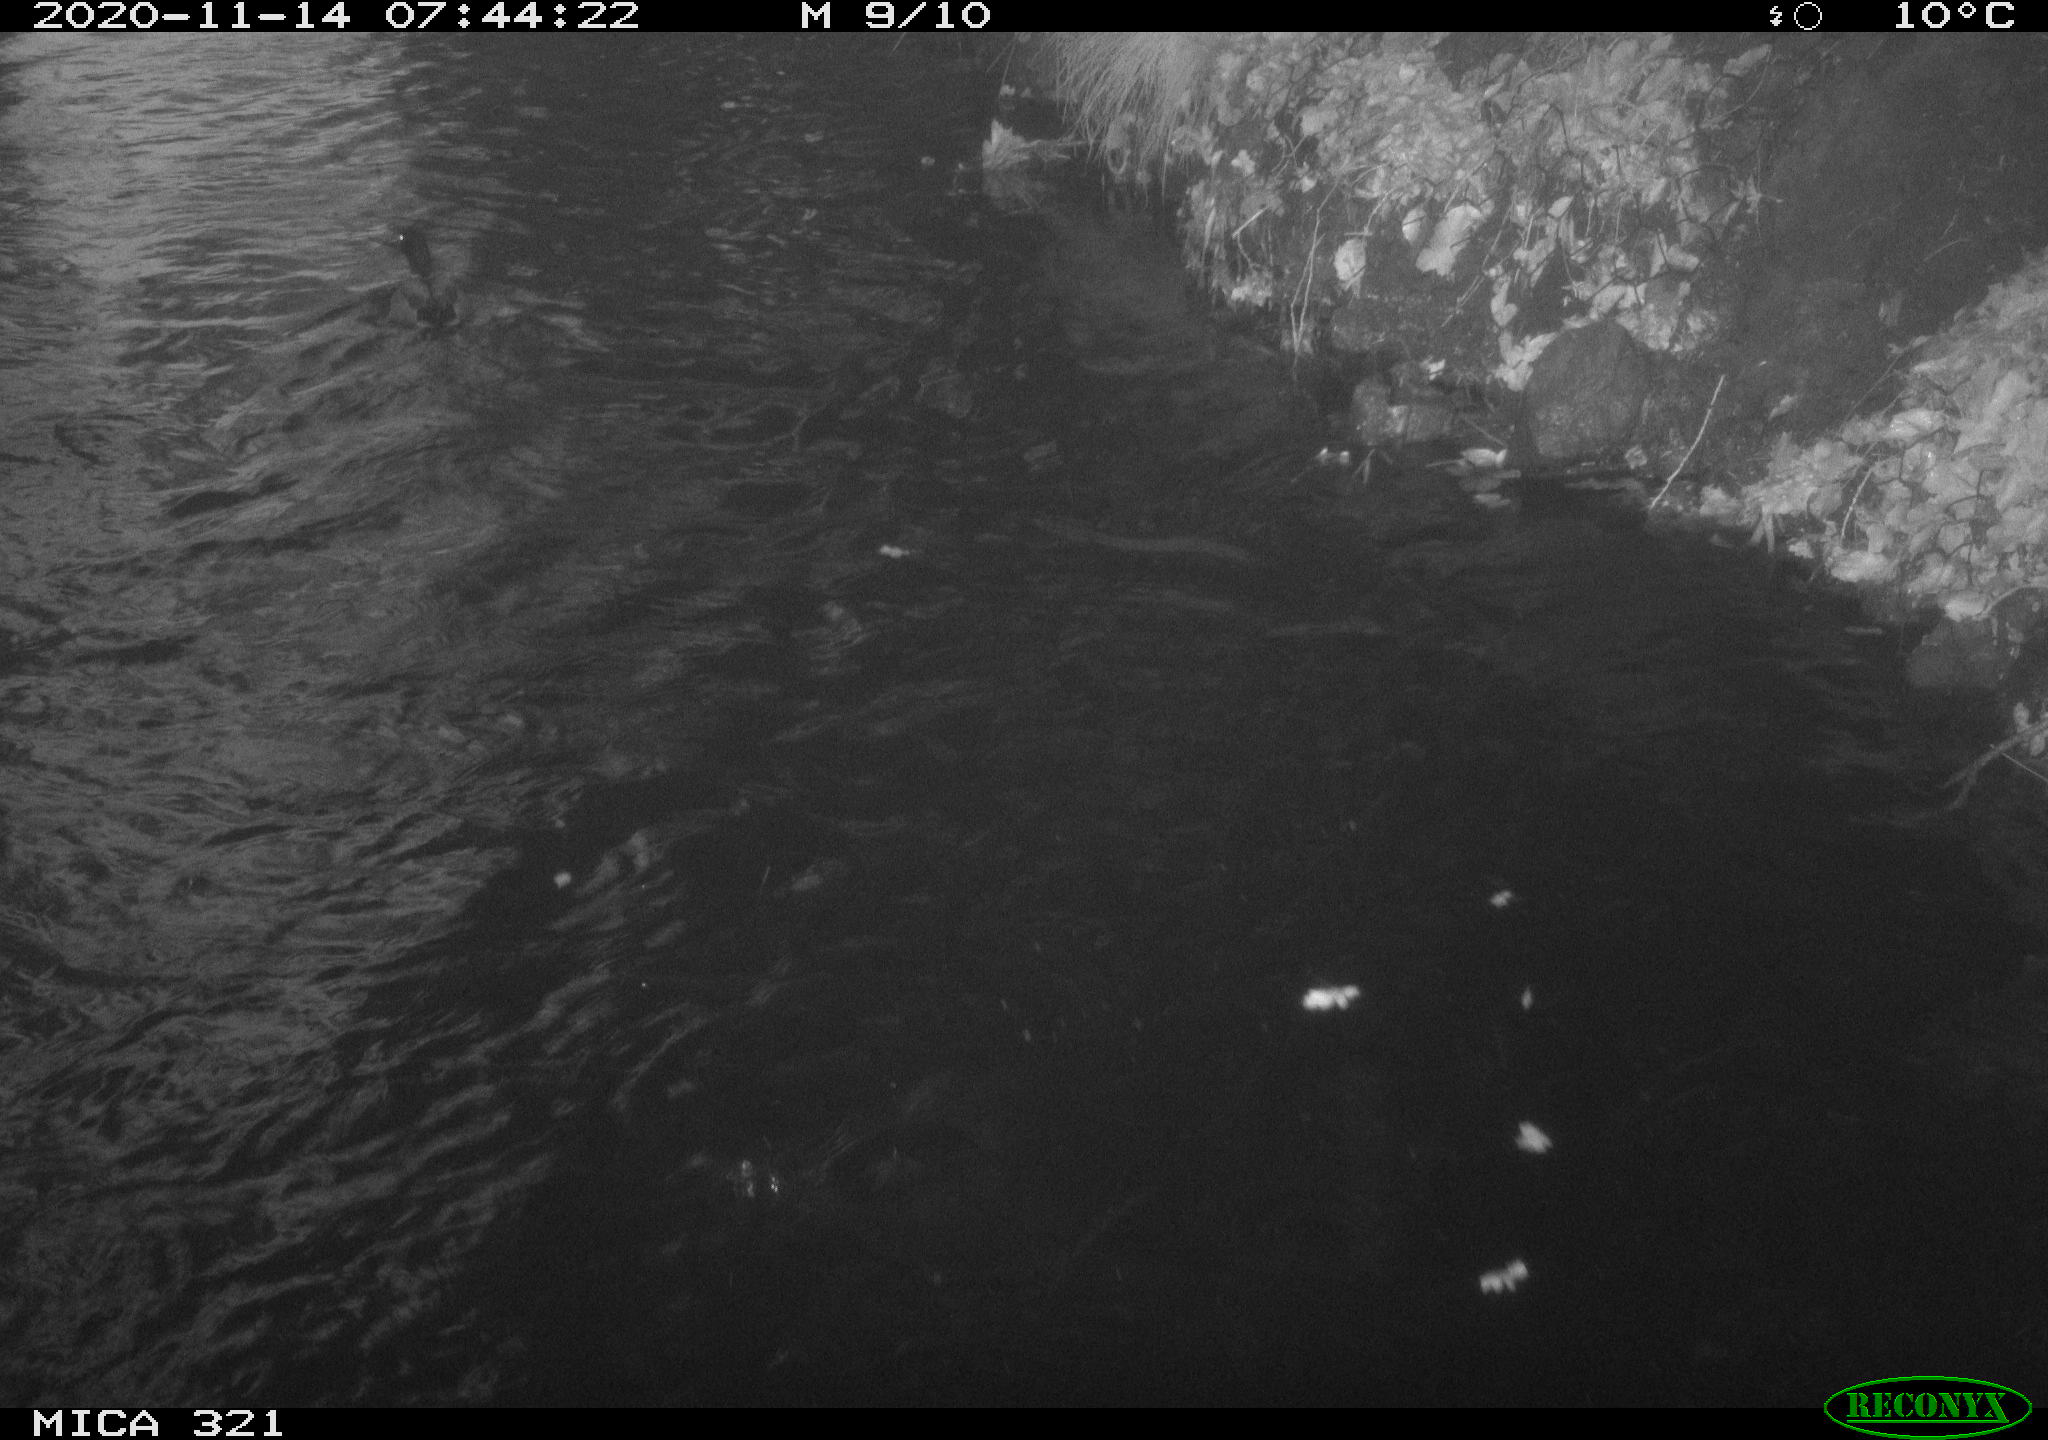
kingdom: Animalia
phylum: Chordata
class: Aves
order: Anseriformes
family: Anatidae
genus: Anas
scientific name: Anas platyrhynchos
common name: Mallard
